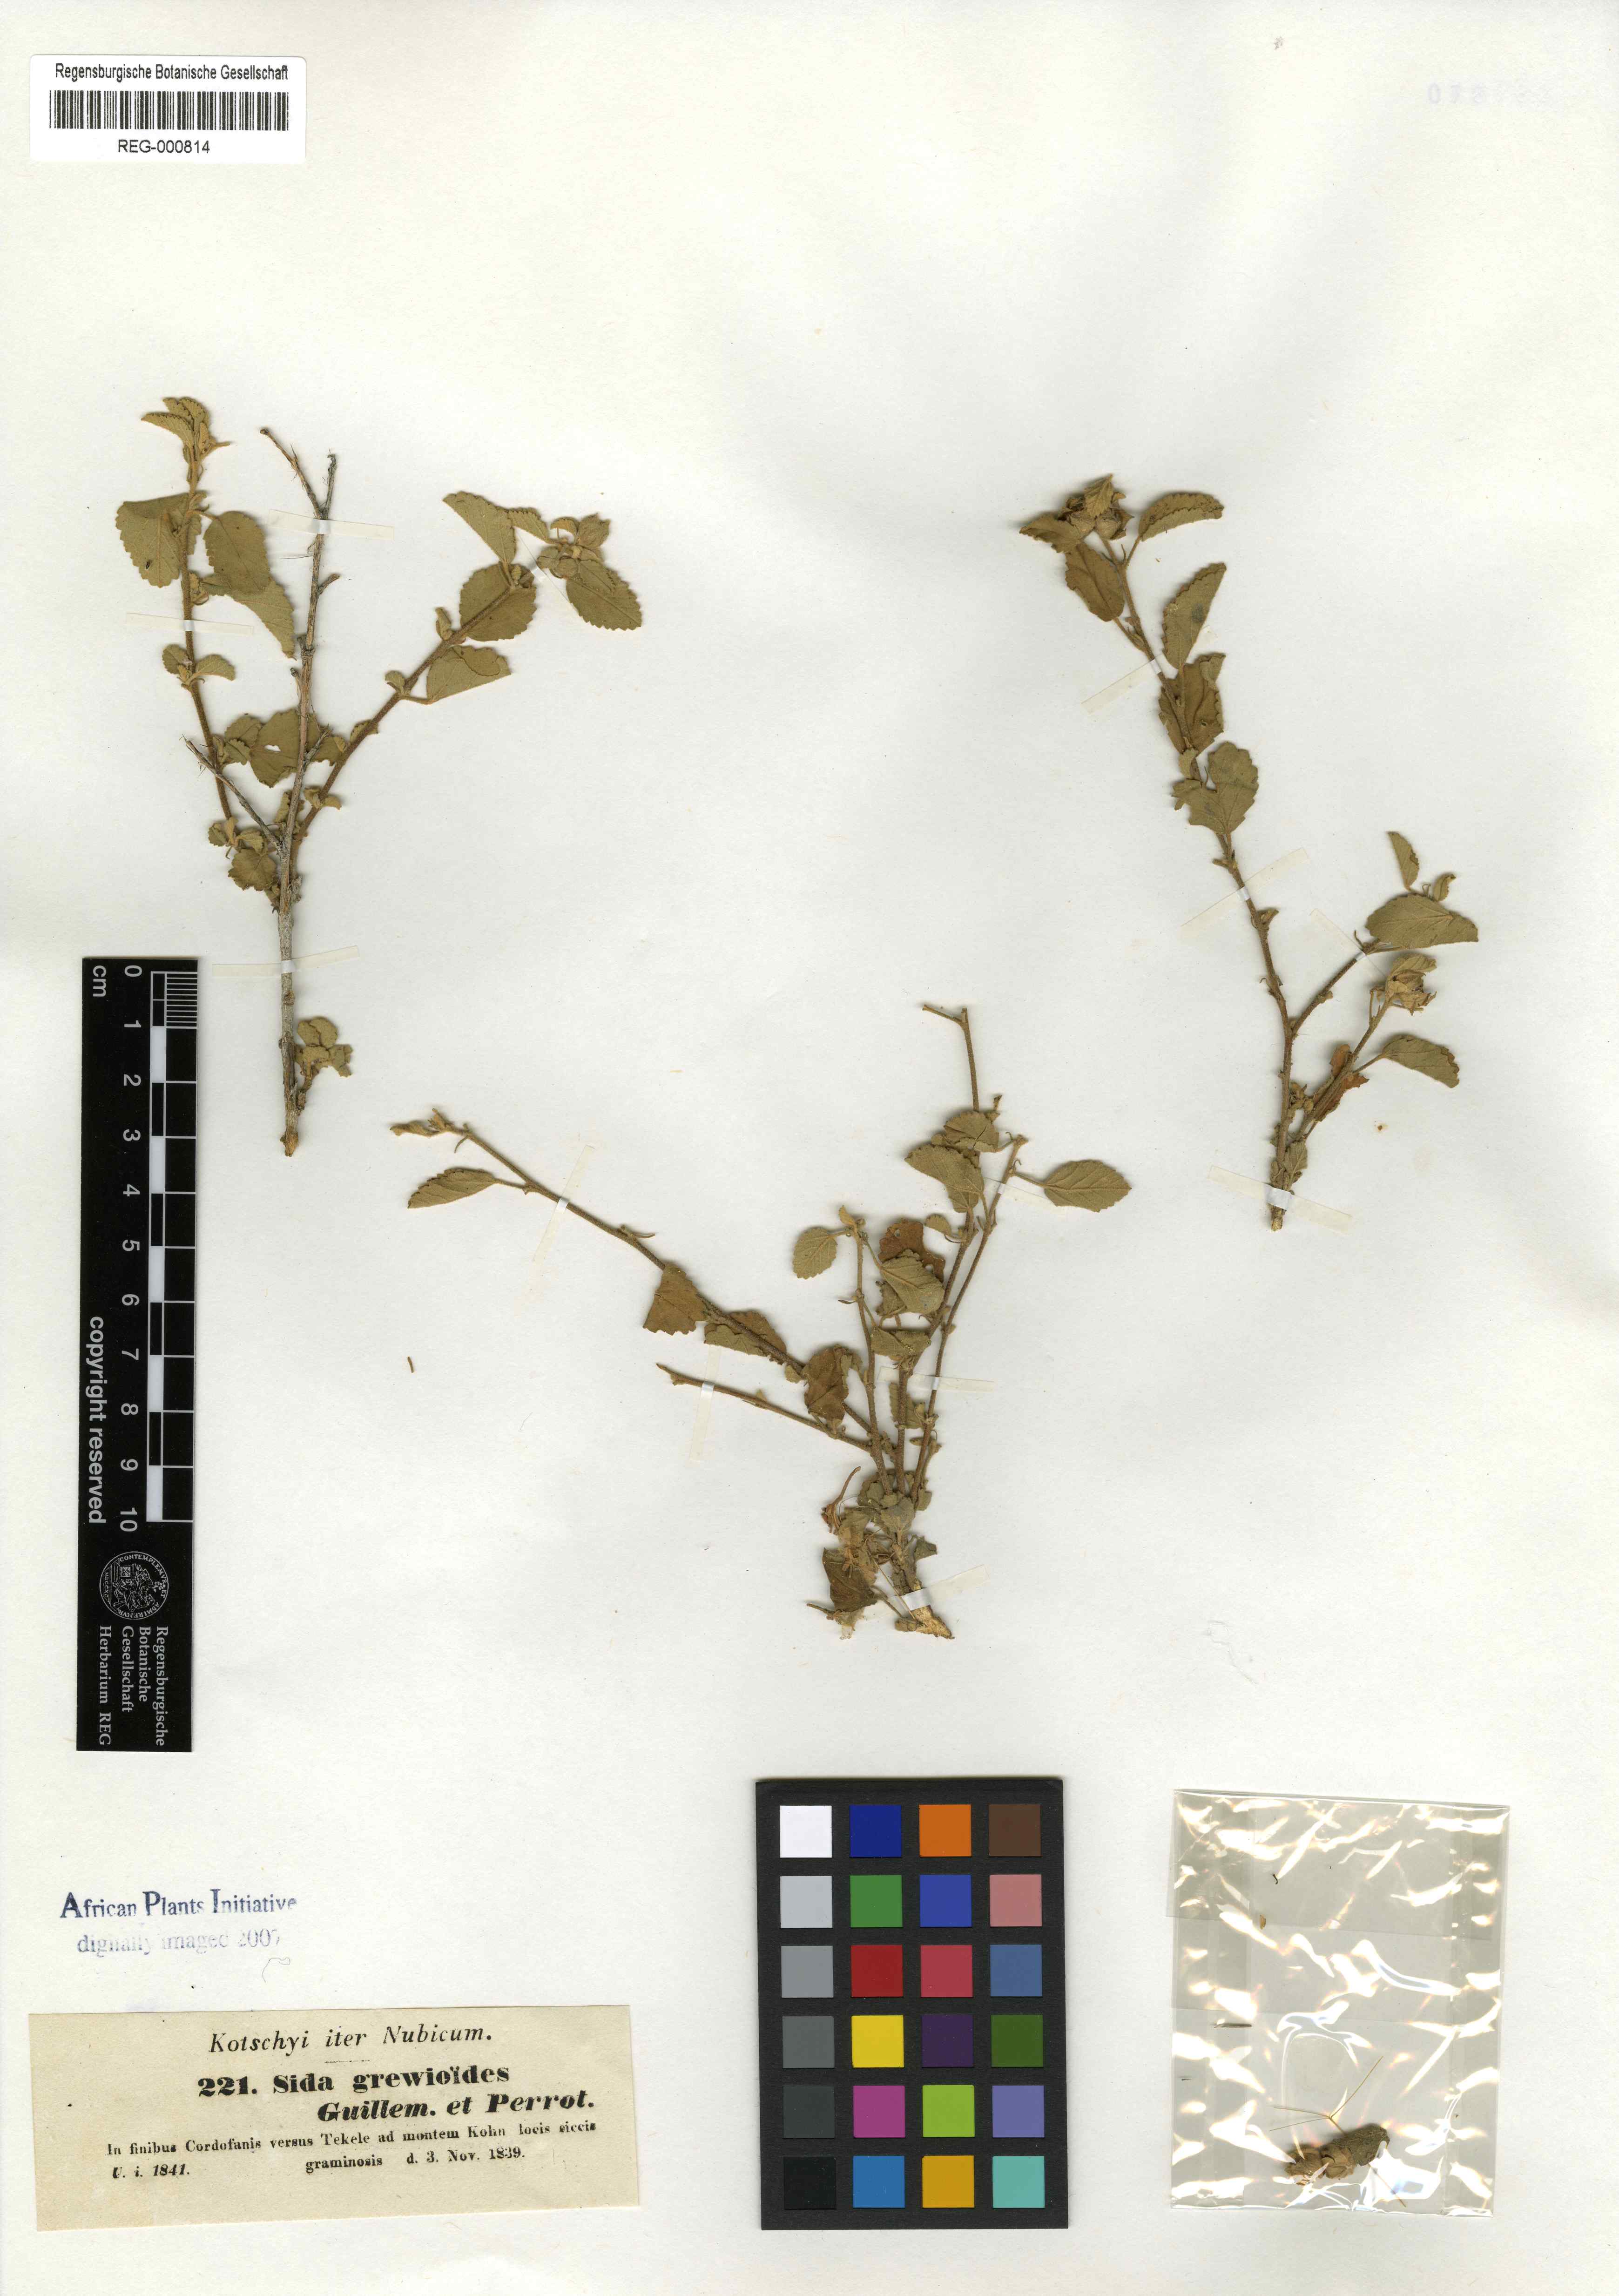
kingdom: Plantae
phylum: Tracheophyta
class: Magnoliopsida
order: Malvales
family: Malvaceae
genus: Sida
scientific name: Sida ovata
